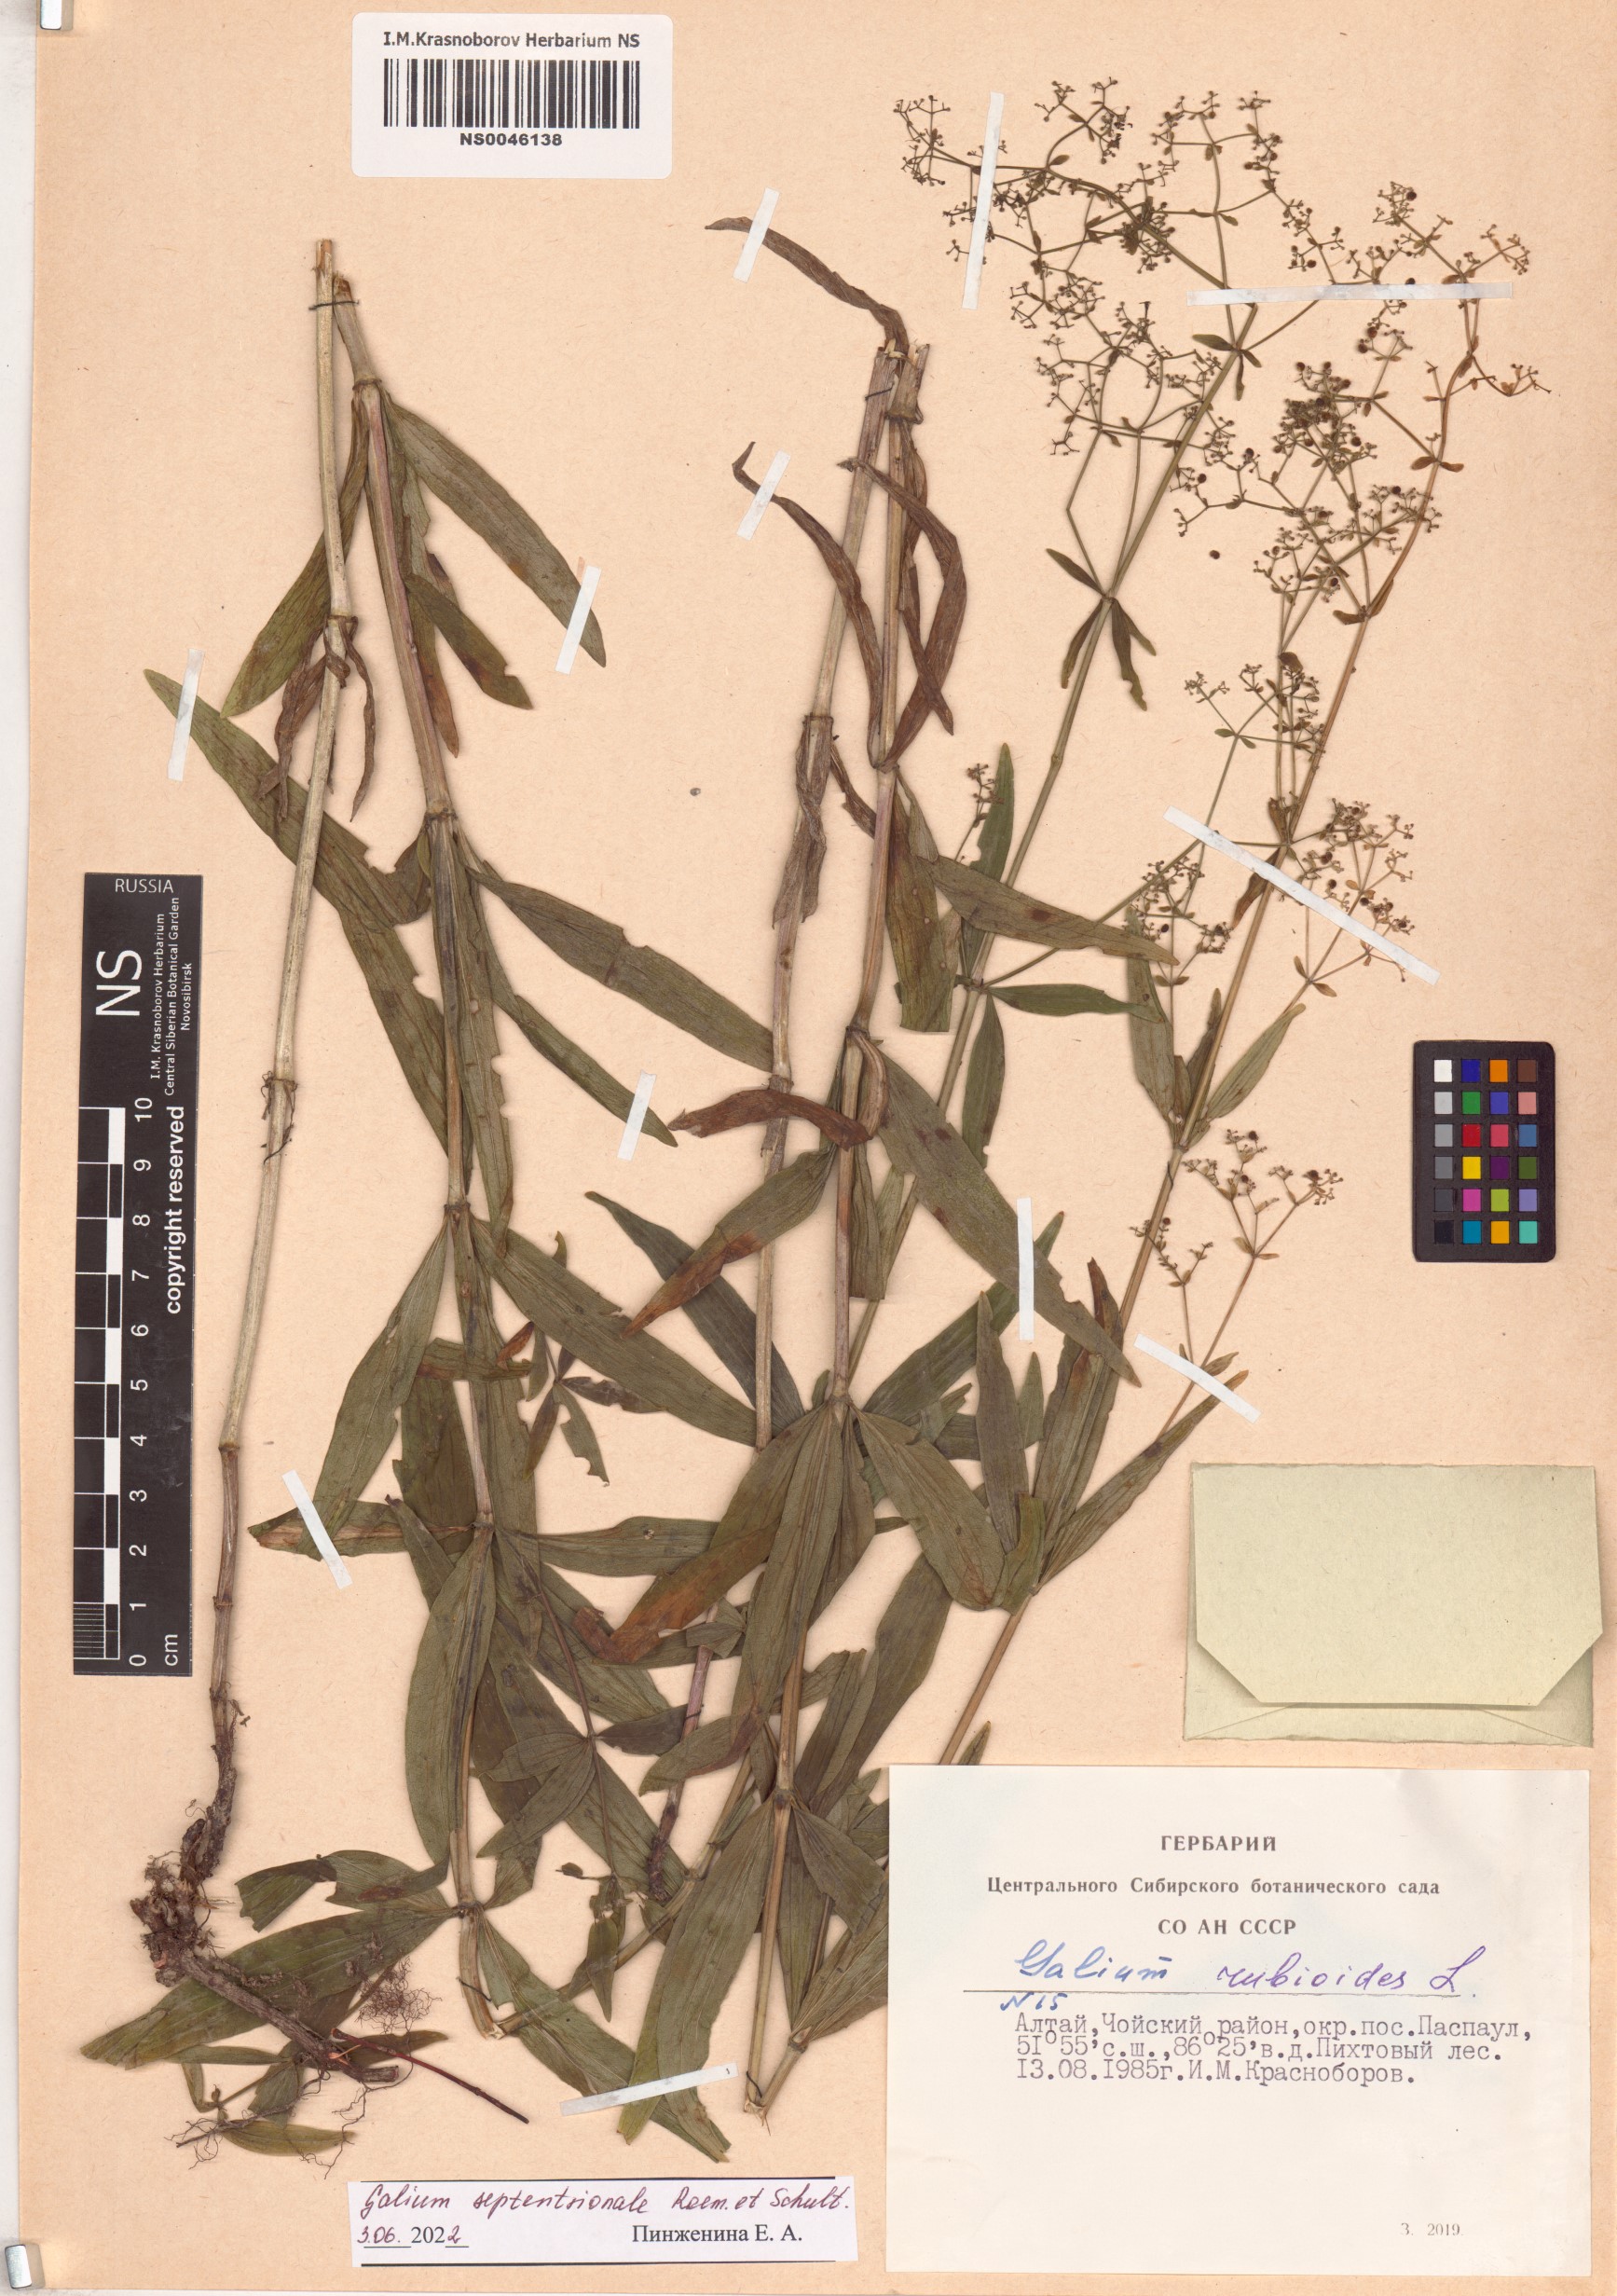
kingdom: Plantae
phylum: Tracheophyta
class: Magnoliopsida
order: Gentianales
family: Rubiaceae
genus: Galium
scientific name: Galium boreale
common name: Northern bedstraw
